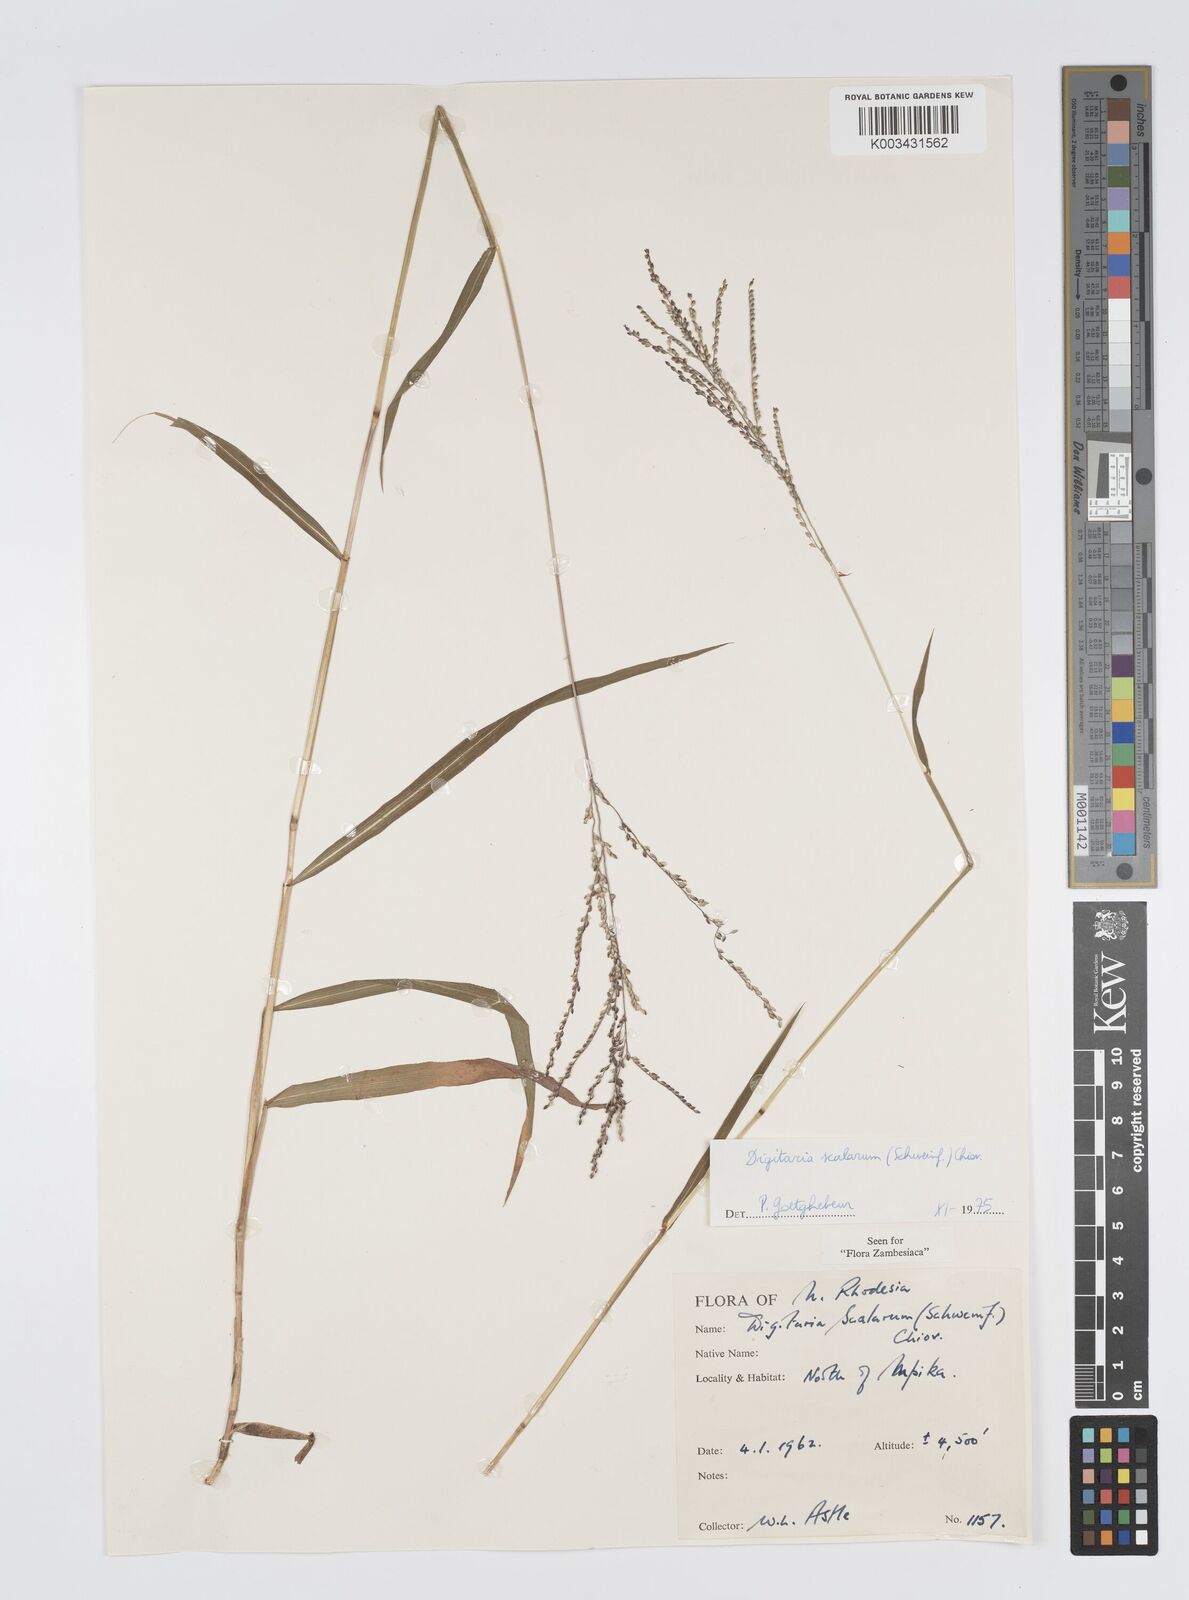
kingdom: Plantae
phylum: Tracheophyta
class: Liliopsida
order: Poales
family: Poaceae
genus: Digitaria
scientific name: Digitaria abyssinica
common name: African couchgrass
